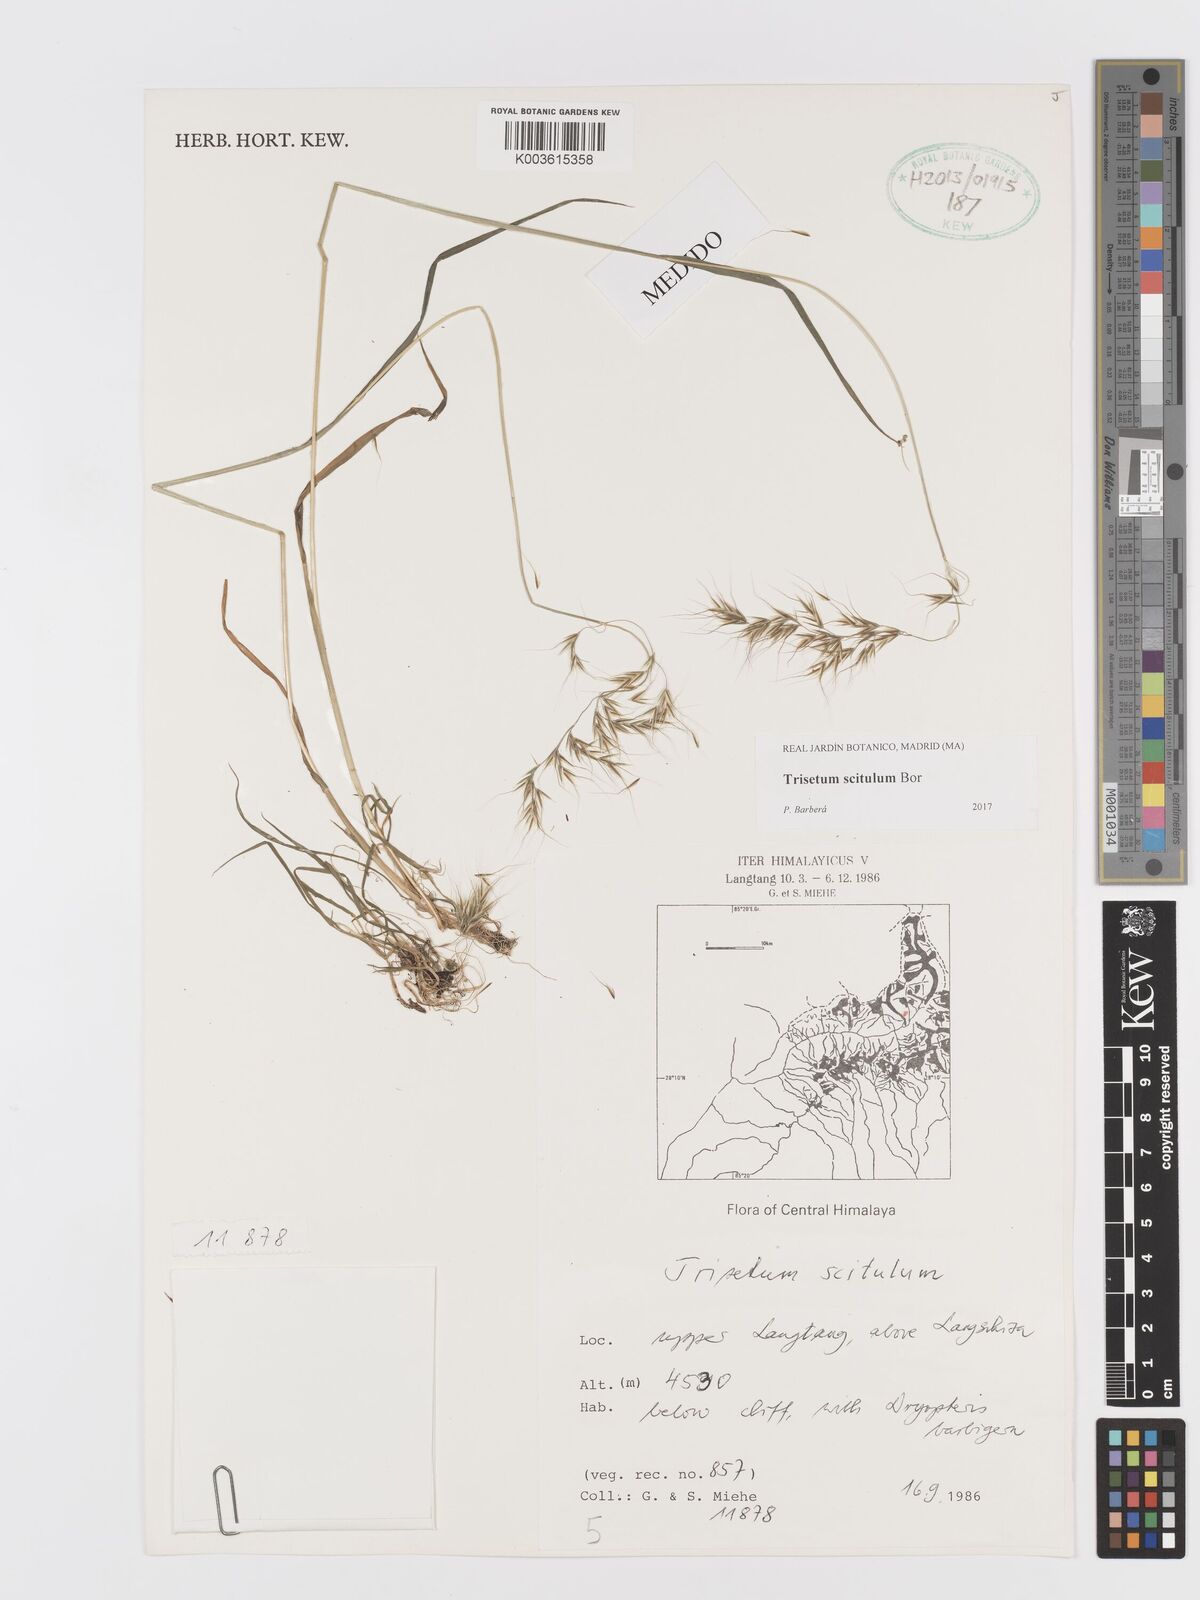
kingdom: Plantae
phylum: Tracheophyta
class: Liliopsida
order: Poales
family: Poaceae
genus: Sibirotrisetum
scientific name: Sibirotrisetum scitulum
